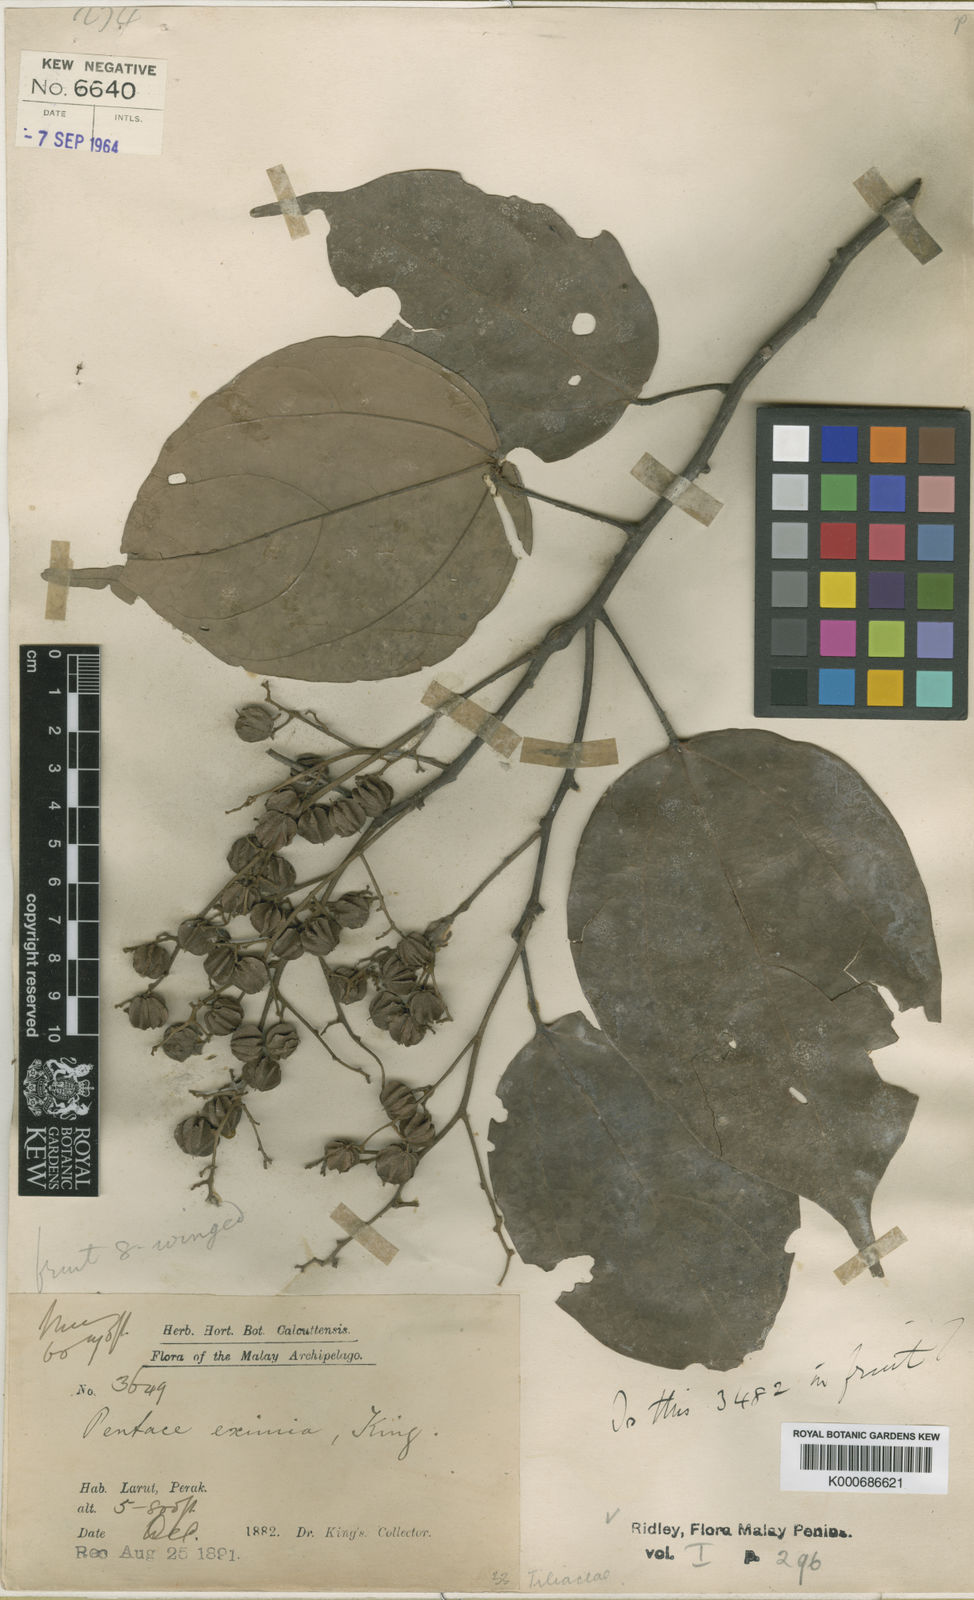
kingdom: Plantae
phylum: Tracheophyta
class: Magnoliopsida
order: Malvales
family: Malvaceae
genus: Pentace
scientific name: Pentace eximia
